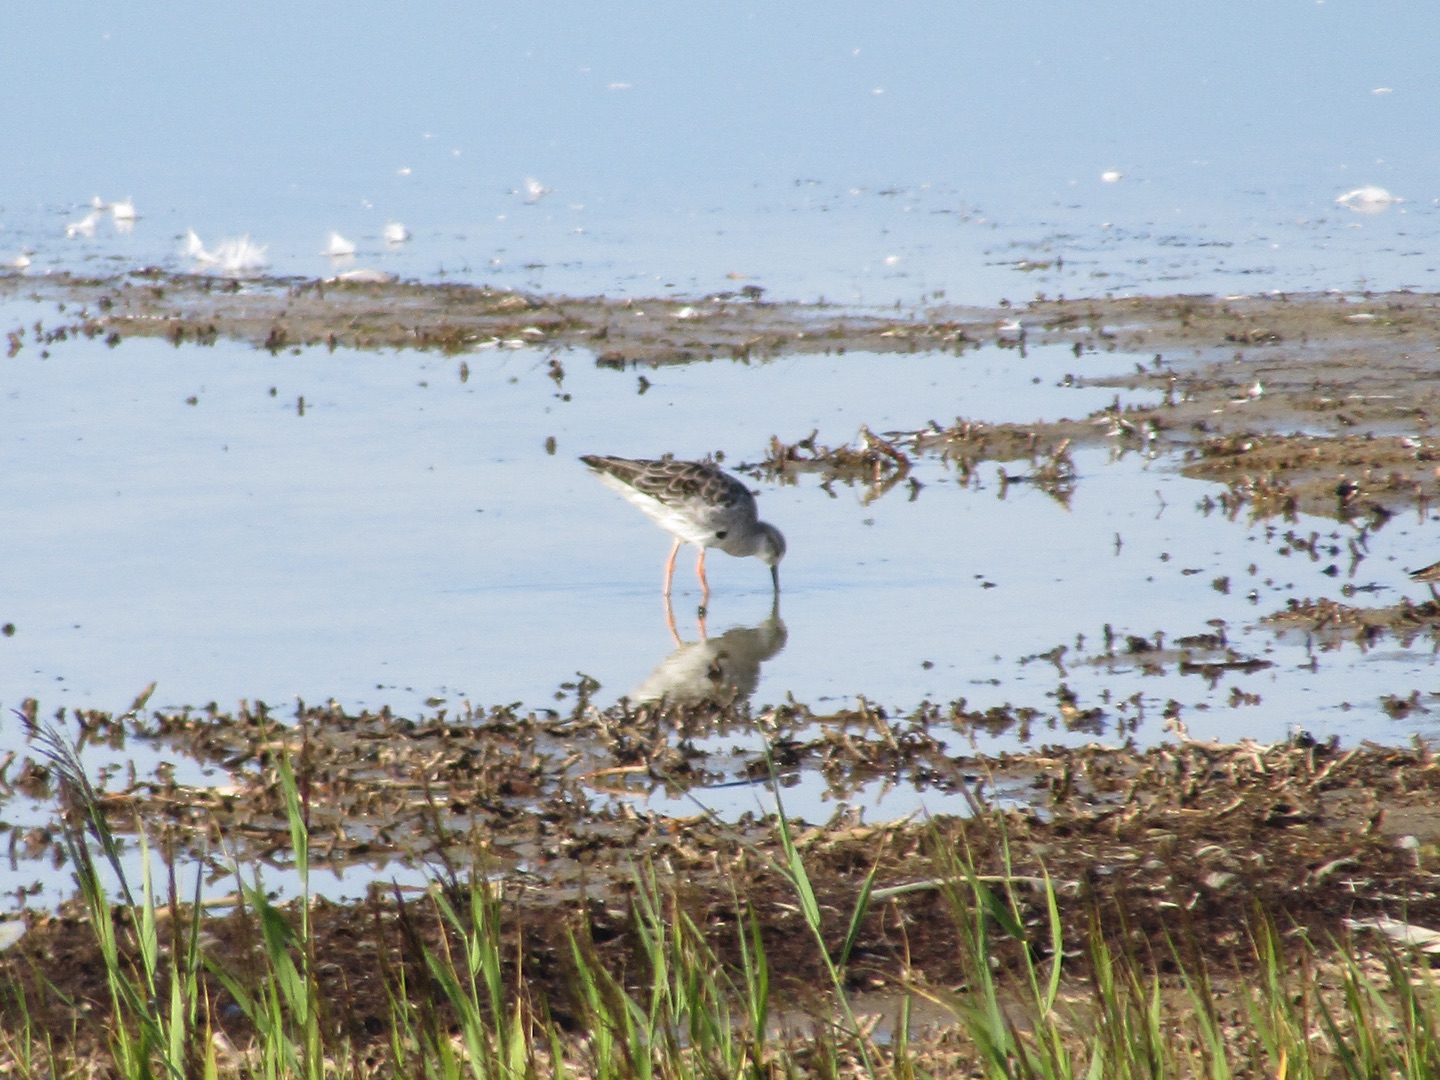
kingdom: Animalia
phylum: Chordata
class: Aves
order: Charadriiformes
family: Scolopacidae
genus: Calidris
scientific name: Calidris pugnax
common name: Brushane
